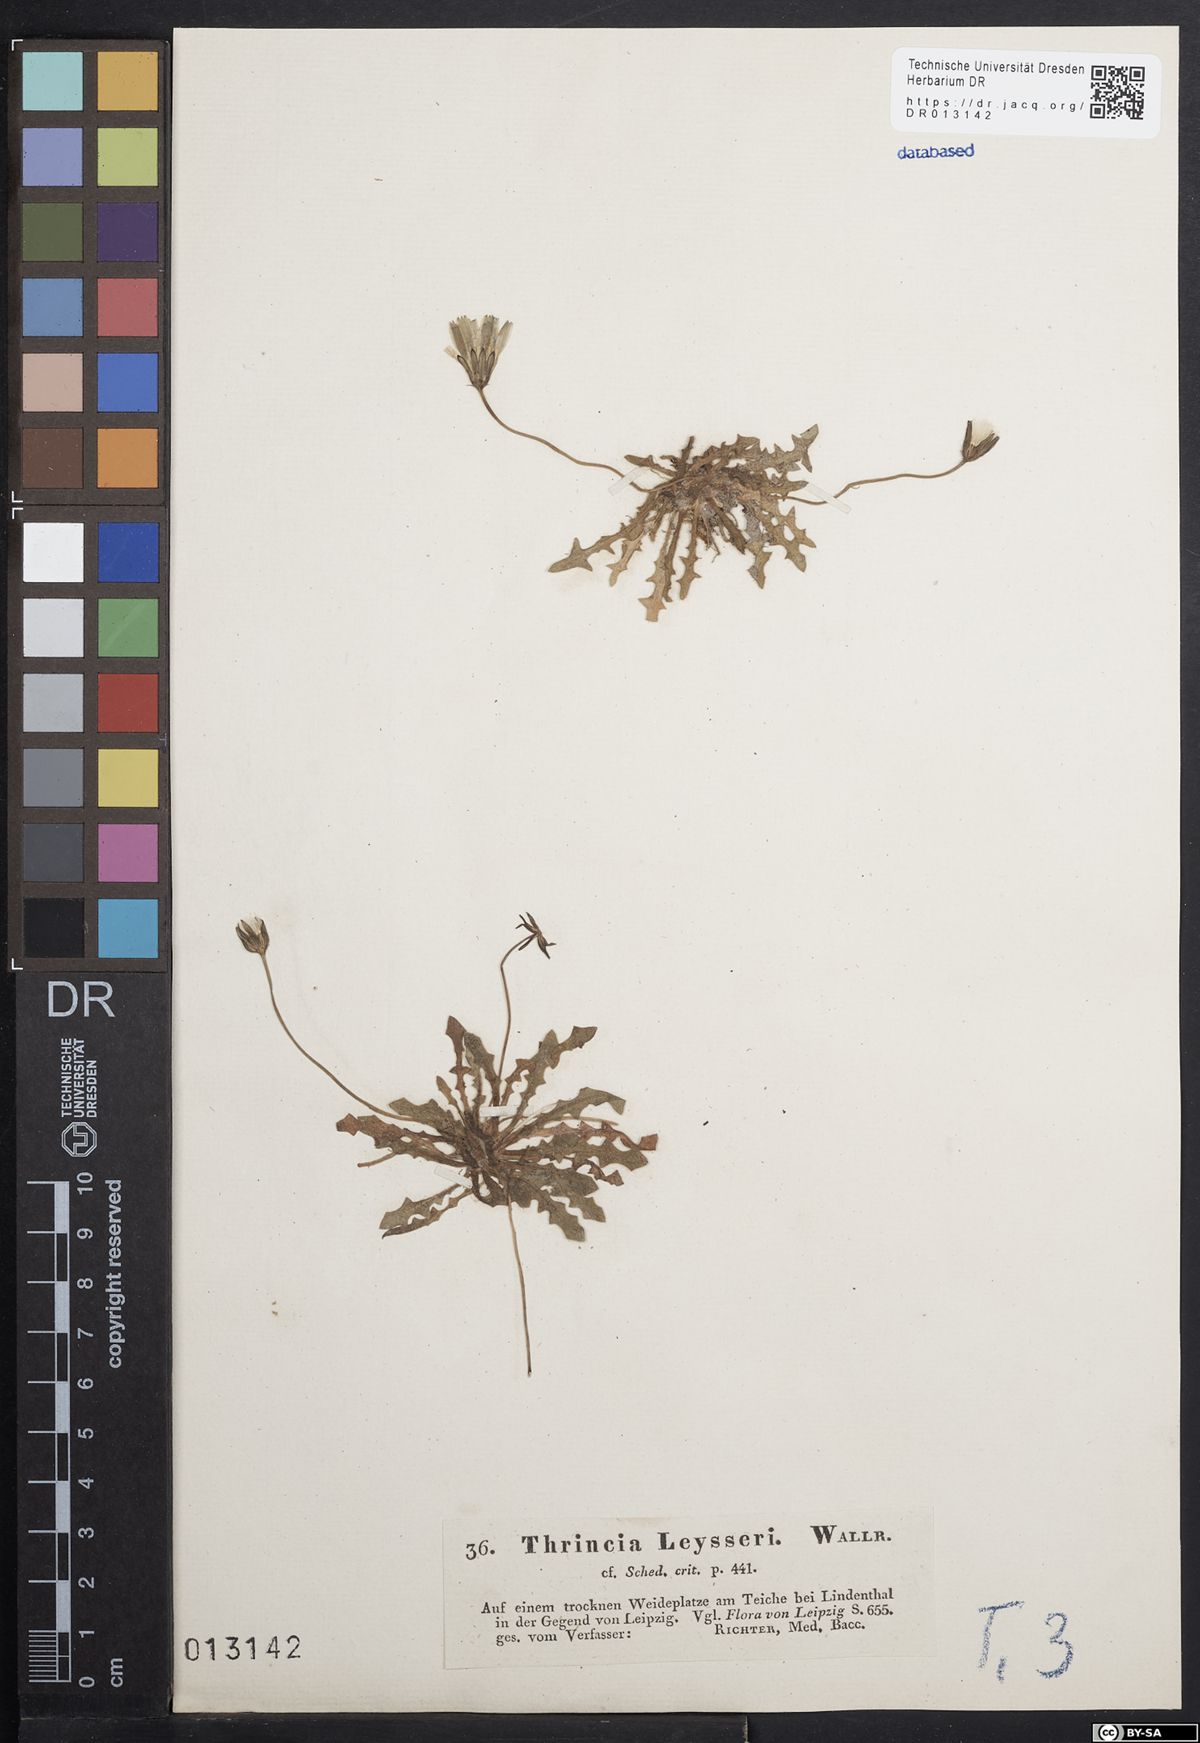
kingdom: Plantae
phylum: Tracheophyta
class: Magnoliopsida
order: Asterales
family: Asteraceae
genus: Thrincia
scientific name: Thrincia saxatilis
